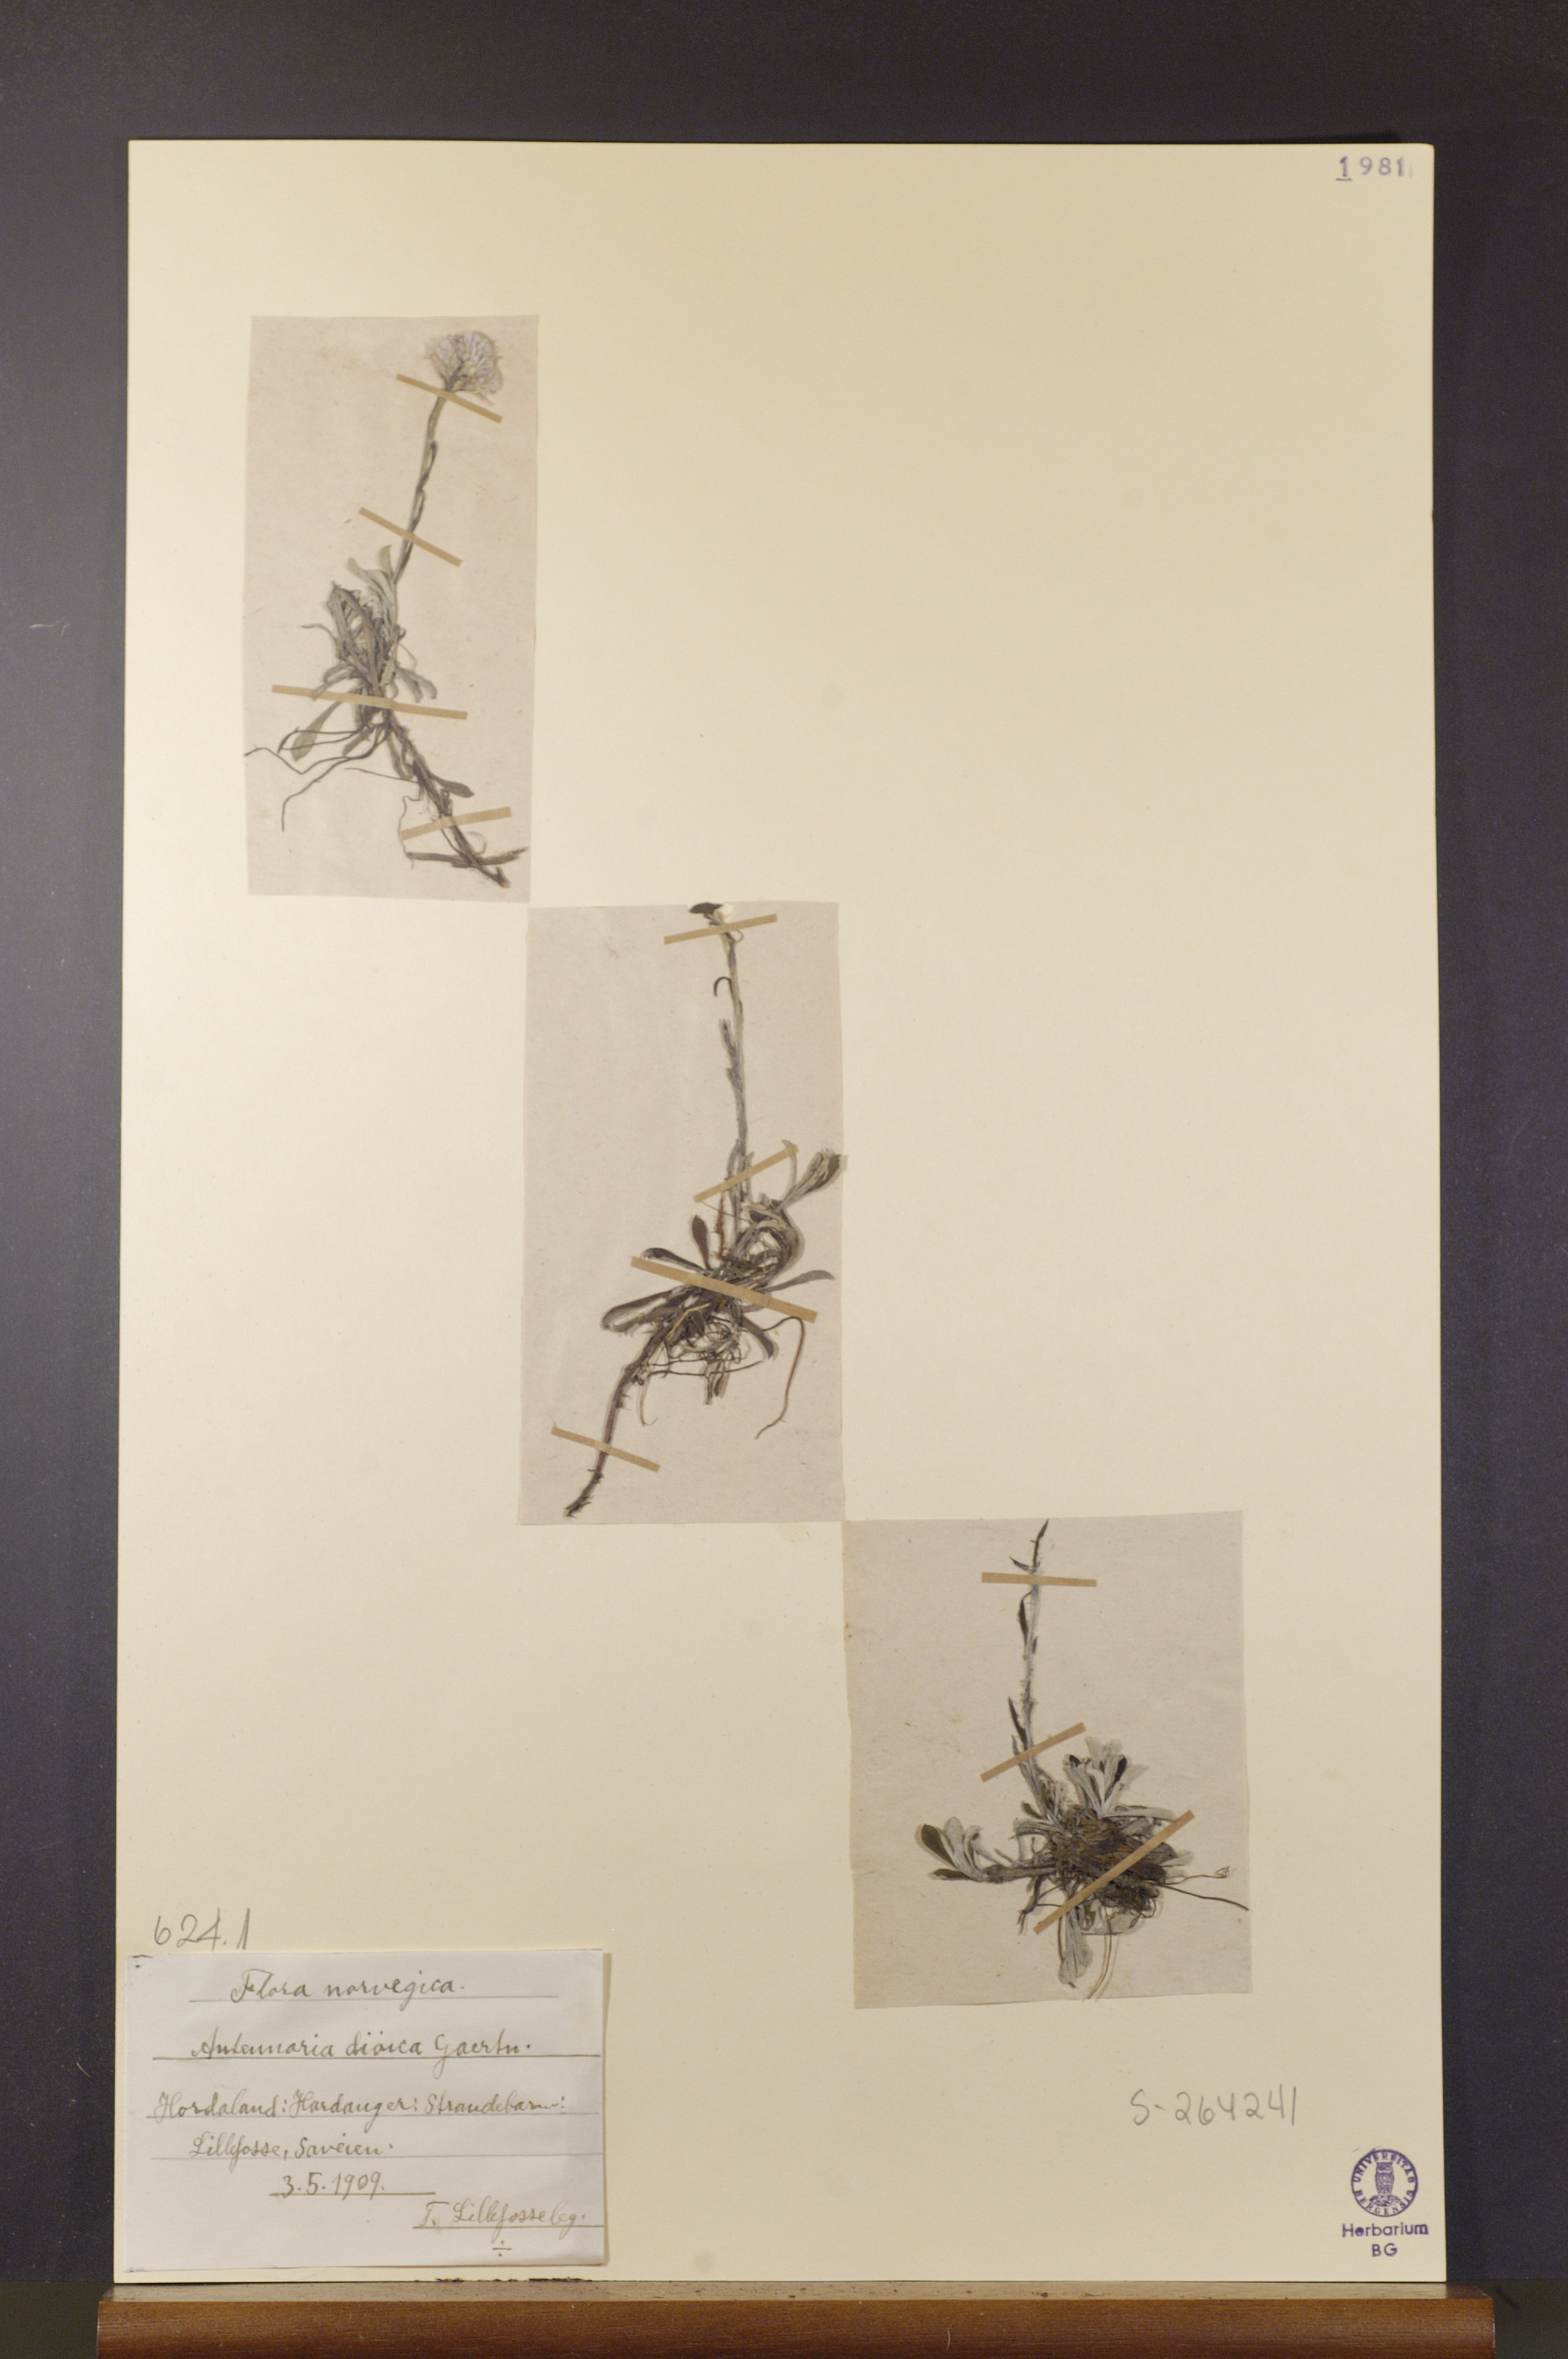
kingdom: Plantae
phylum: Tracheophyta
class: Magnoliopsida
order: Asterales
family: Asteraceae
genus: Antennaria
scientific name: Antennaria dioica
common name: Mountain everlasting
